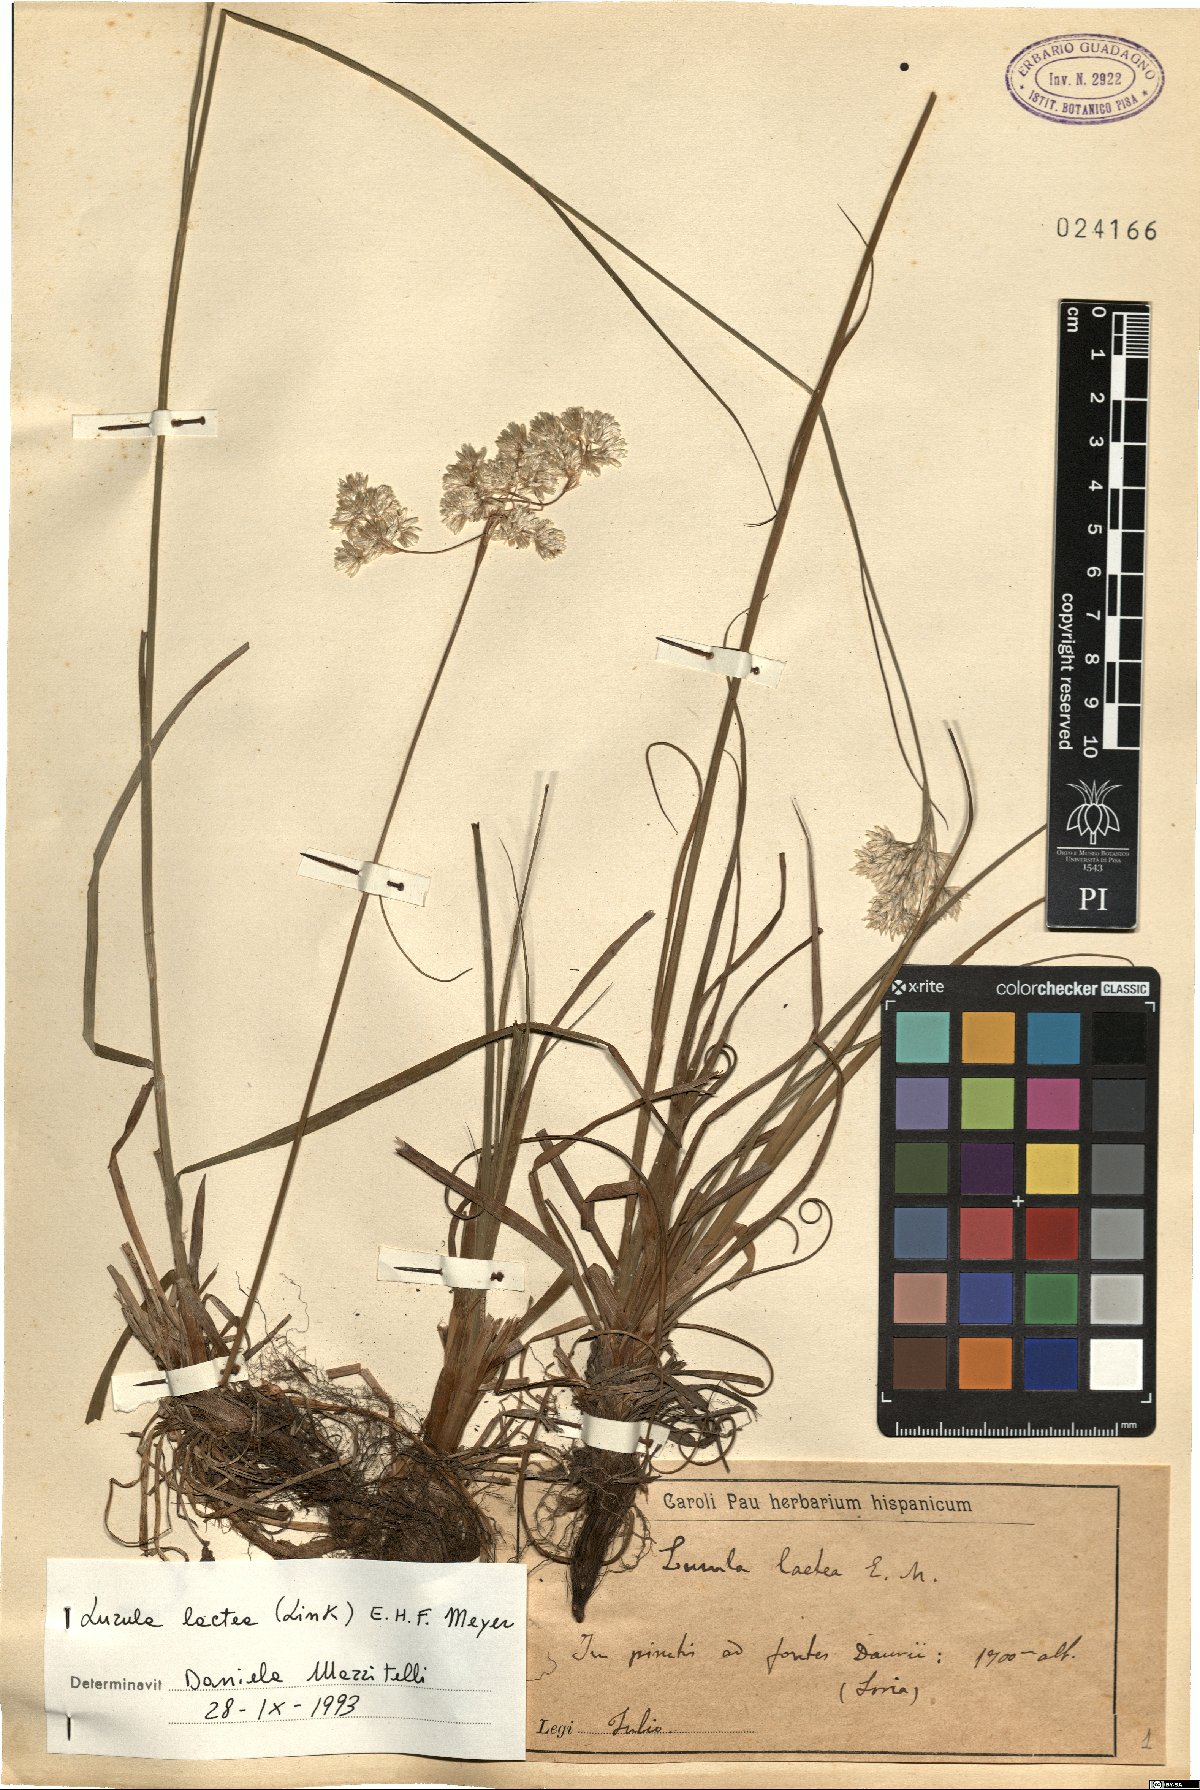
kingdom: Plantae
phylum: Tracheophyta
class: Liliopsida
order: Poales
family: Juncaceae
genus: Luzula
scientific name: Luzula lactea
